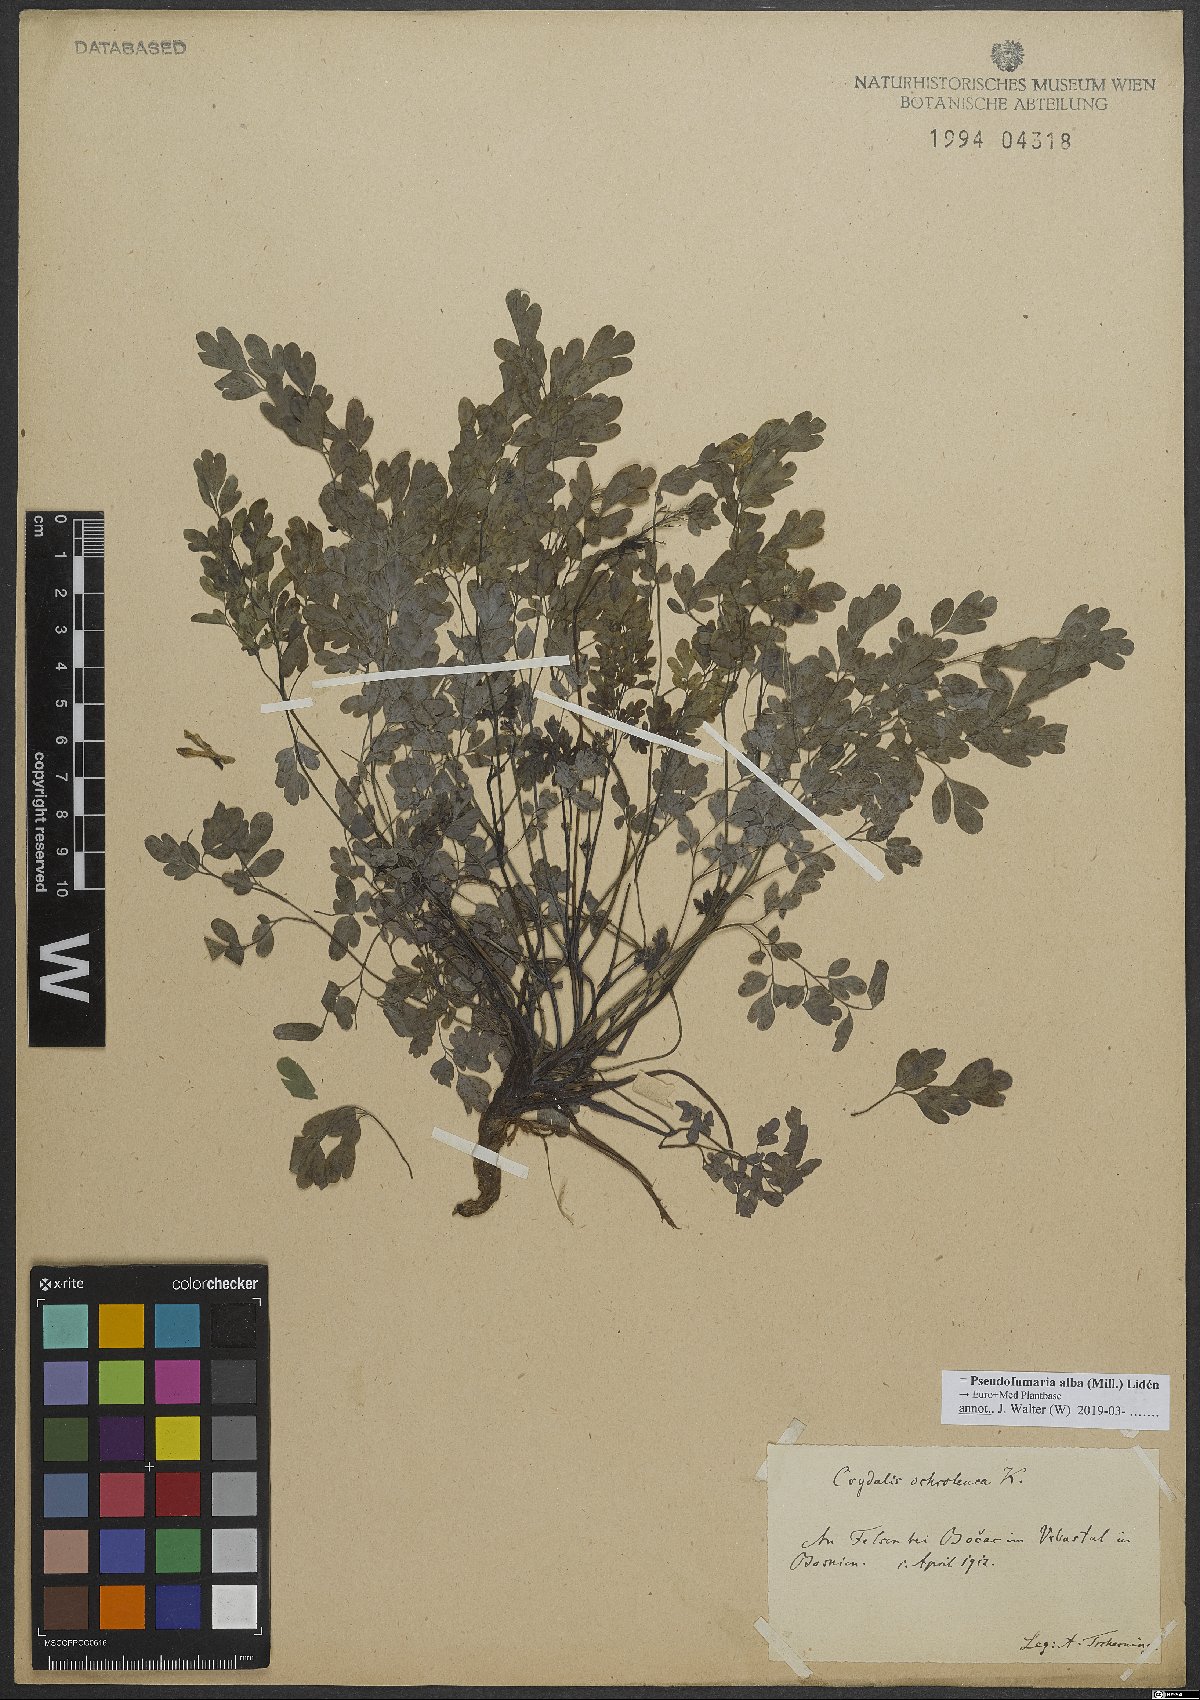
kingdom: Plantae
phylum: Tracheophyta
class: Magnoliopsida
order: Ranunculales
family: Papaveraceae
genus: Pseudofumaria
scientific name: Pseudofumaria alba
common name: Pale corydalis
